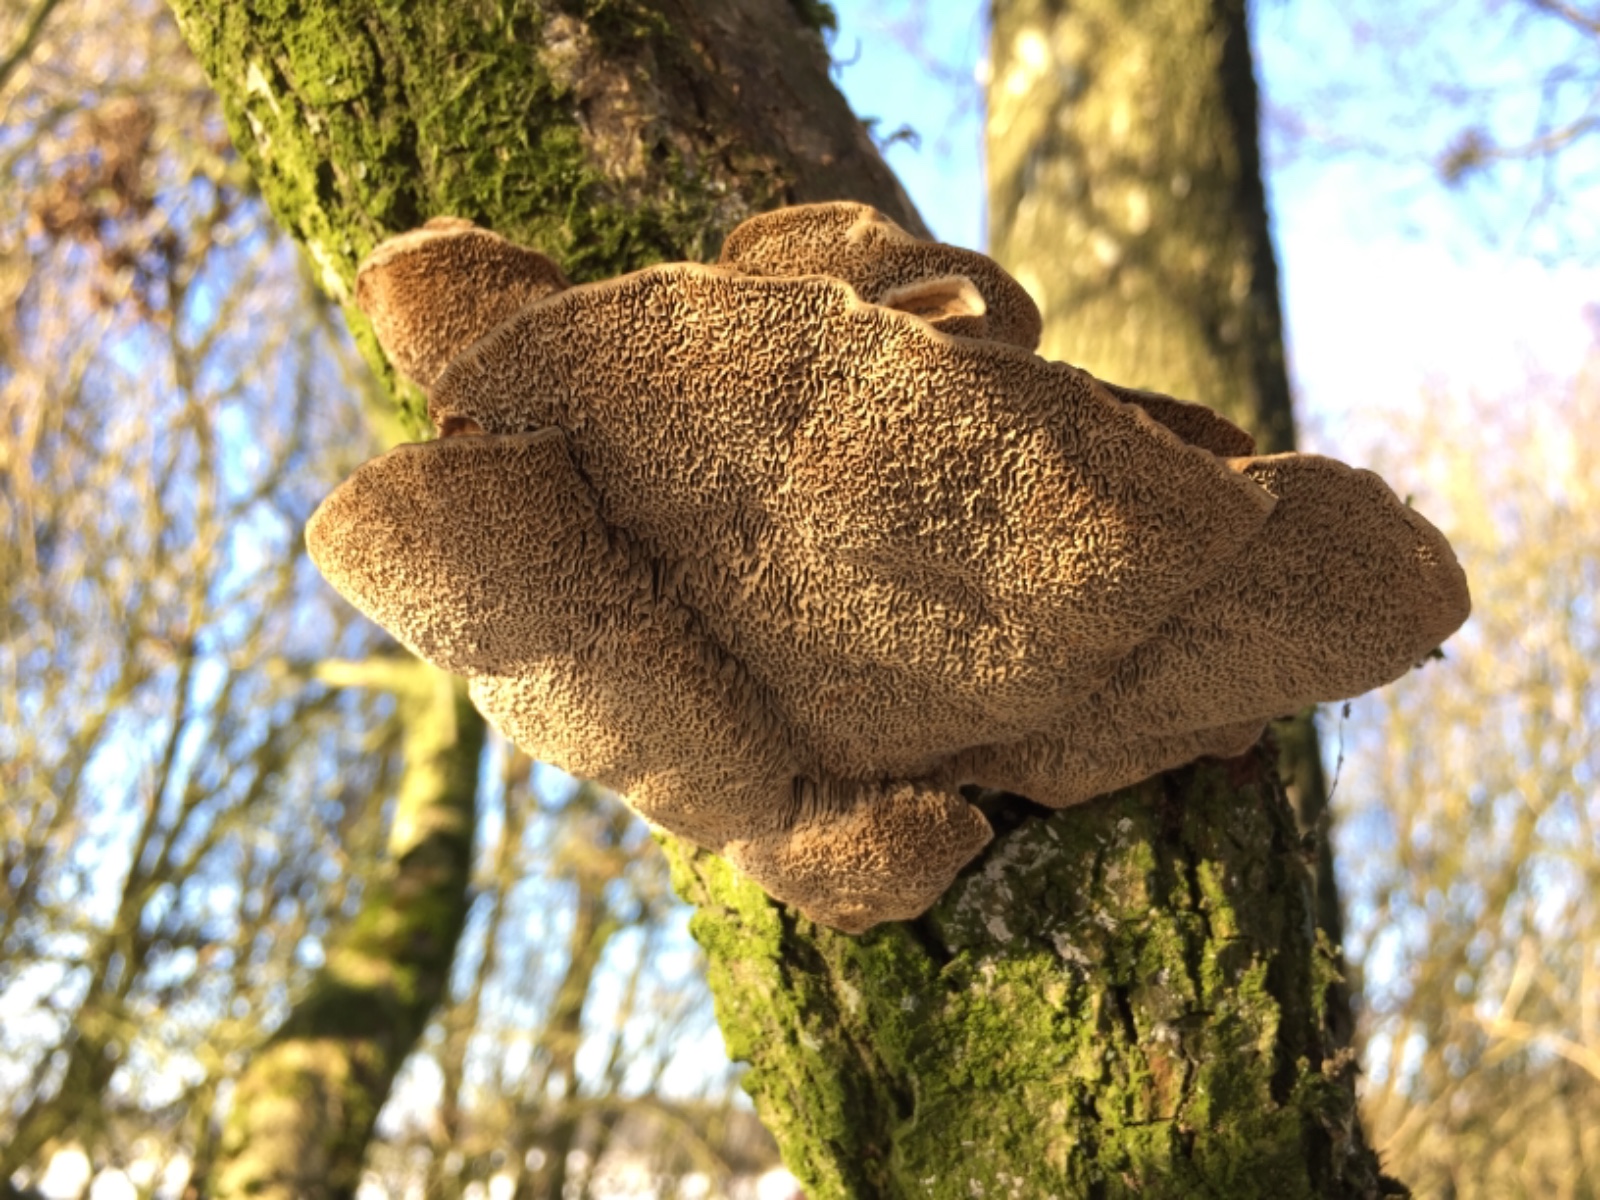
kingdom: Fungi
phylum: Basidiomycota
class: Agaricomycetes
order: Polyporales
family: Polyporaceae
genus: Daedaleopsis
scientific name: Daedaleopsis confragosa
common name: rødmende læderporesvamp
